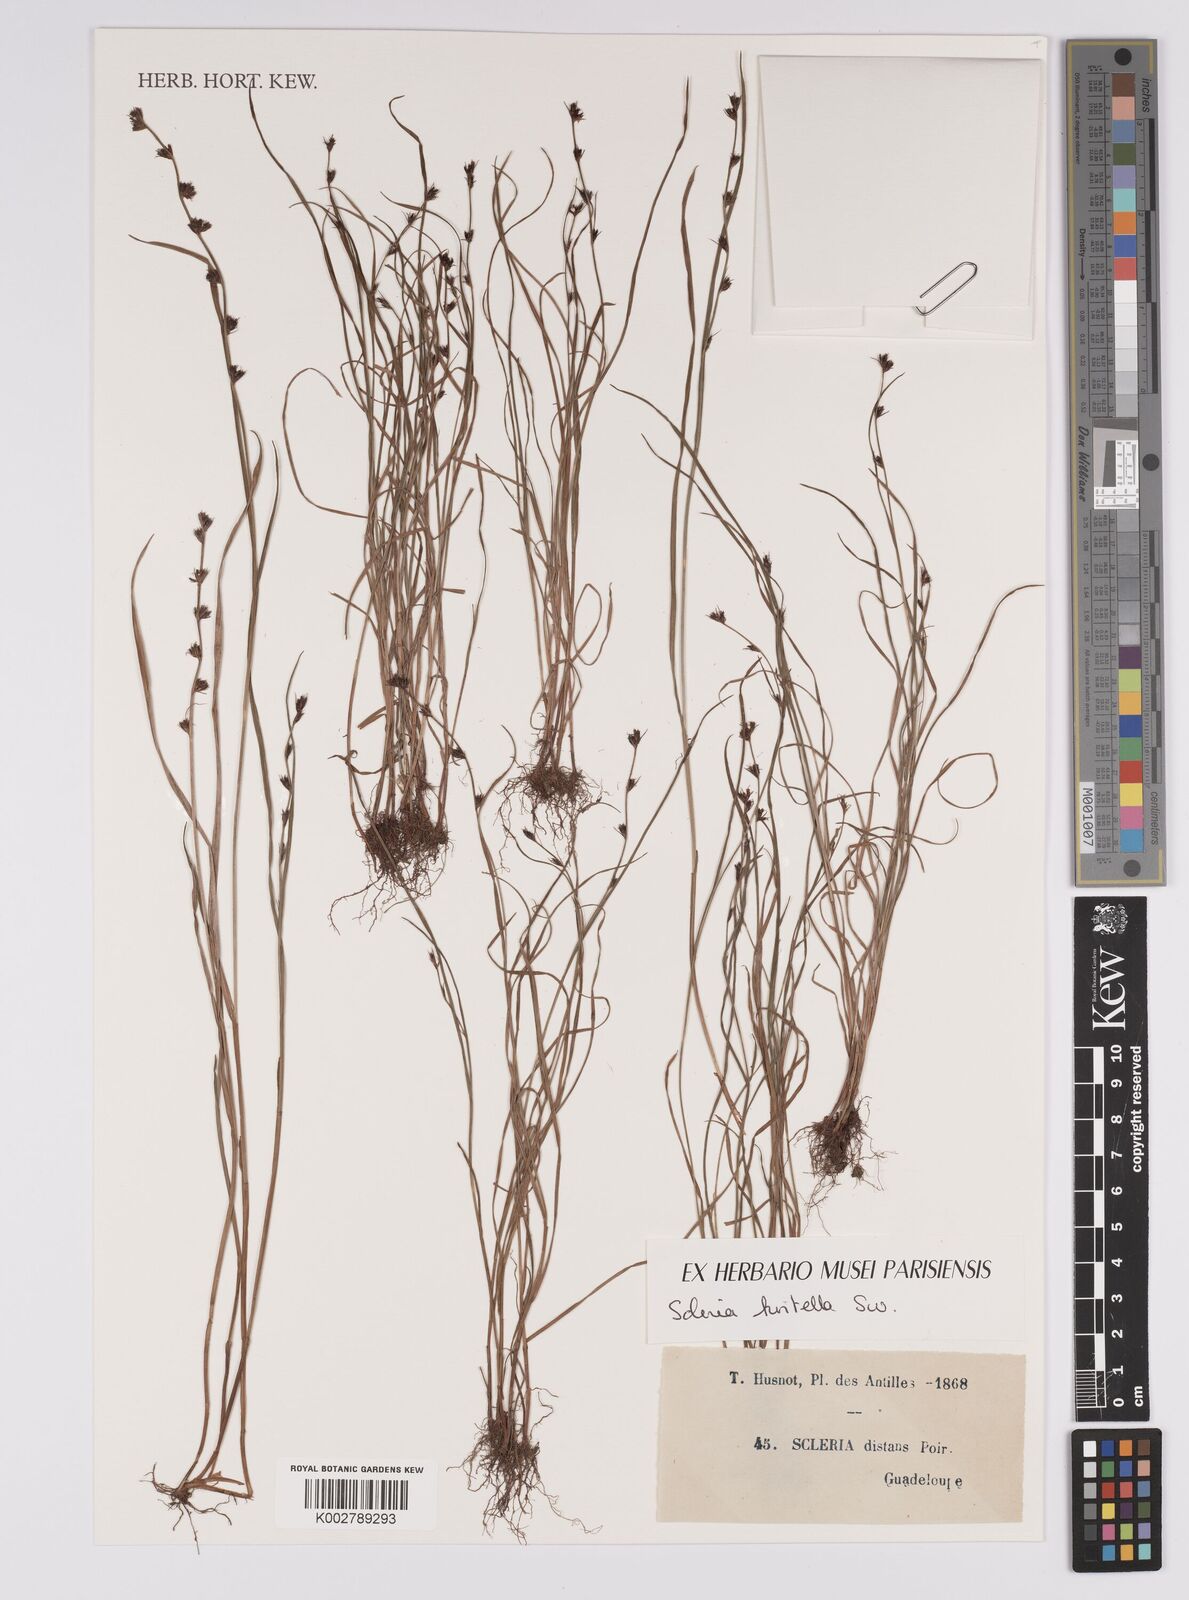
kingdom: Plantae
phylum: Tracheophyta
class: Liliopsida
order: Poales
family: Cyperaceae
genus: Scleria
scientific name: Scleria hirtella
